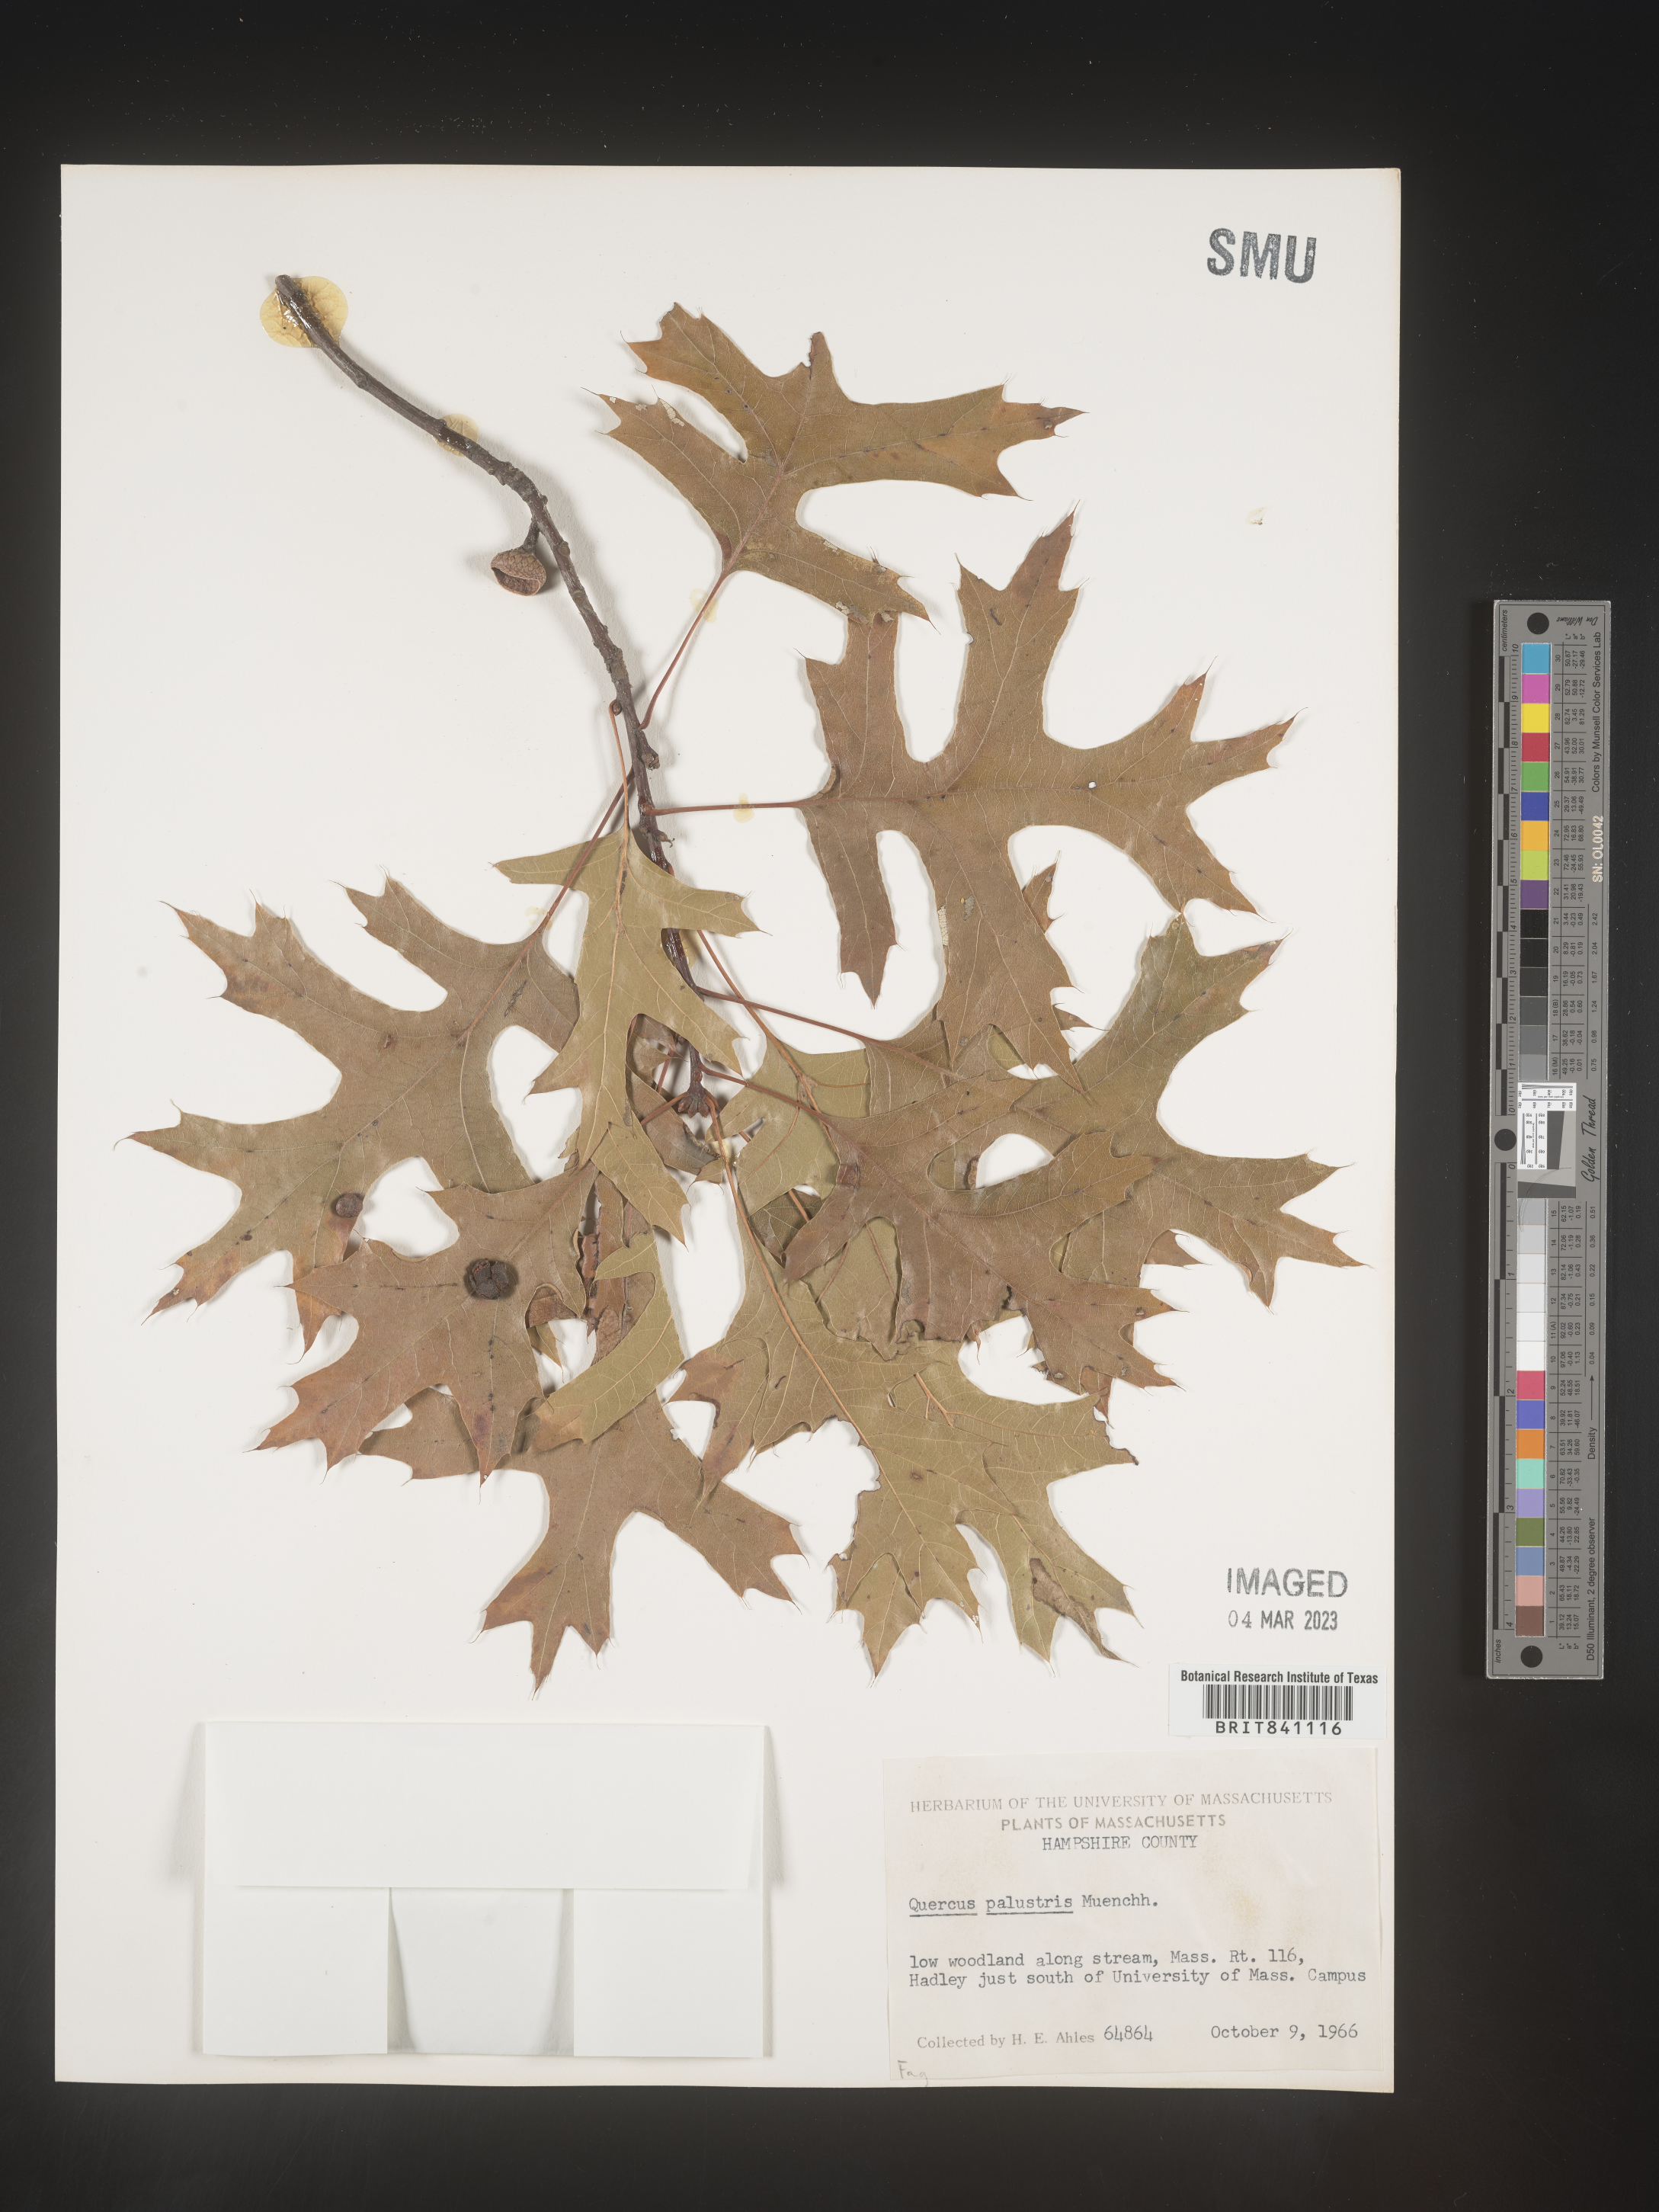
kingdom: Plantae
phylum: Tracheophyta
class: Magnoliopsida
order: Fagales
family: Fagaceae
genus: Quercus
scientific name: Quercus palustris
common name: Pin oak
